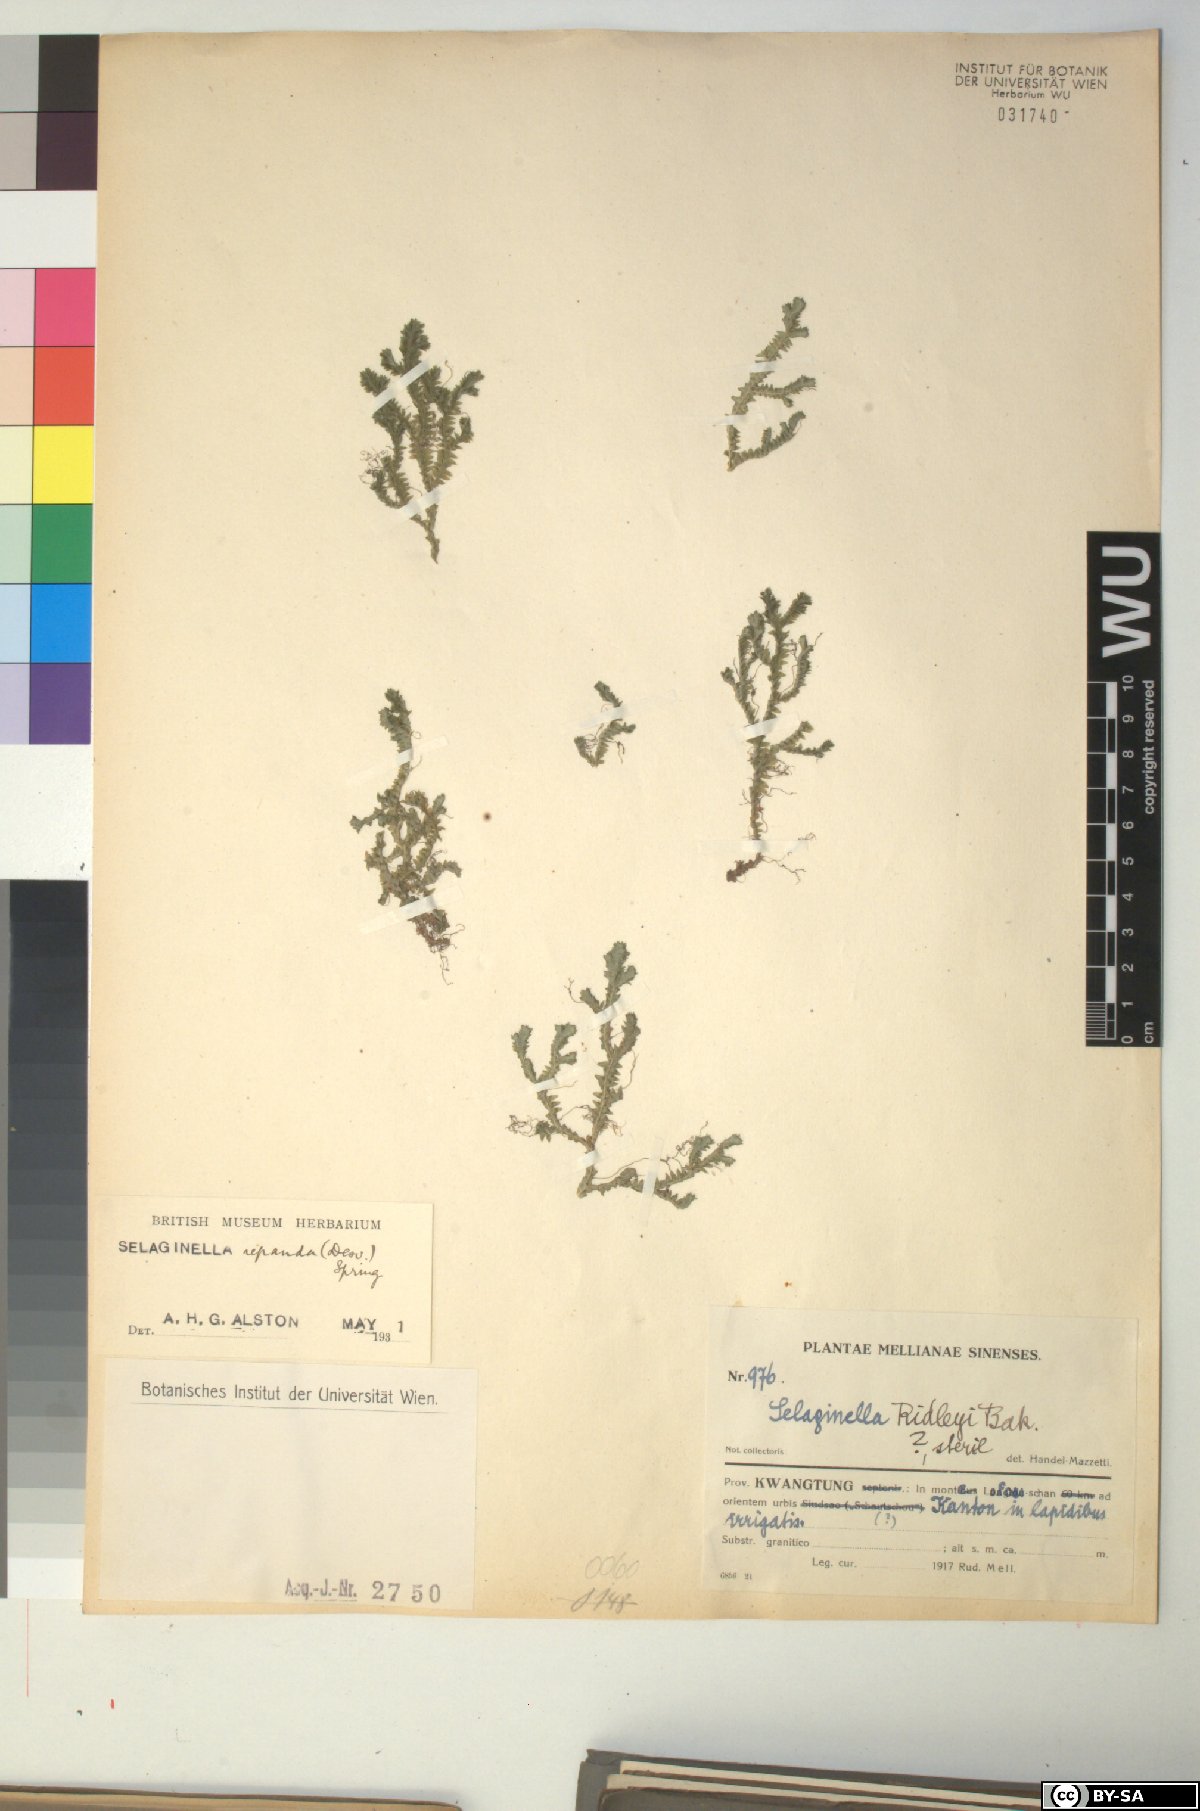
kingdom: Plantae
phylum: Tracheophyta
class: Lycopodiopsida
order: Selaginellales
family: Selaginellaceae
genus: Selaginella
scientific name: Selaginella repanda
